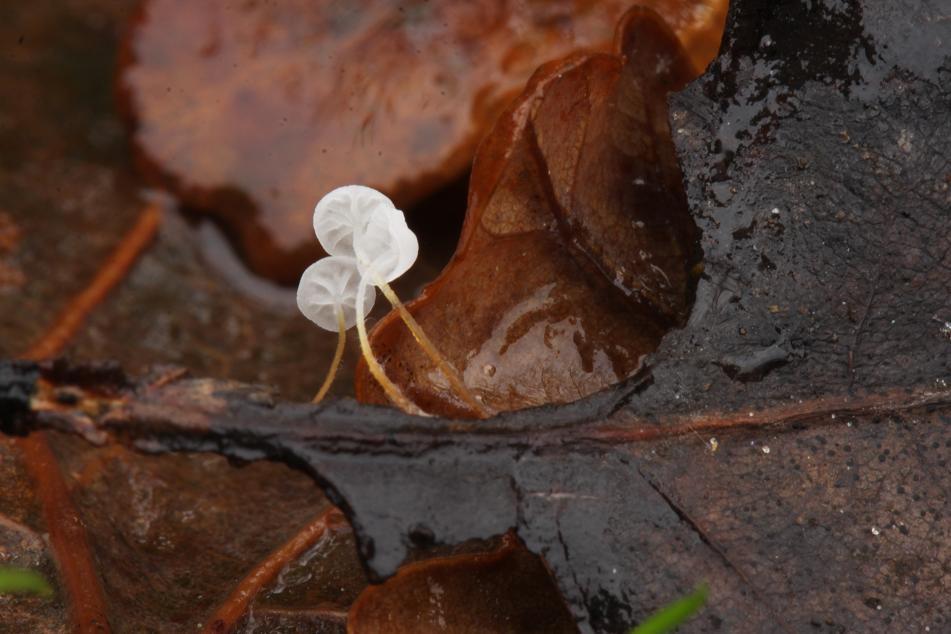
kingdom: Fungi
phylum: Basidiomycota
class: Agaricomycetes
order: Agaricales
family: Marasmiaceae
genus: Marasmius
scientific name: Marasmius epiphyllus
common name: blad-bruskhat
